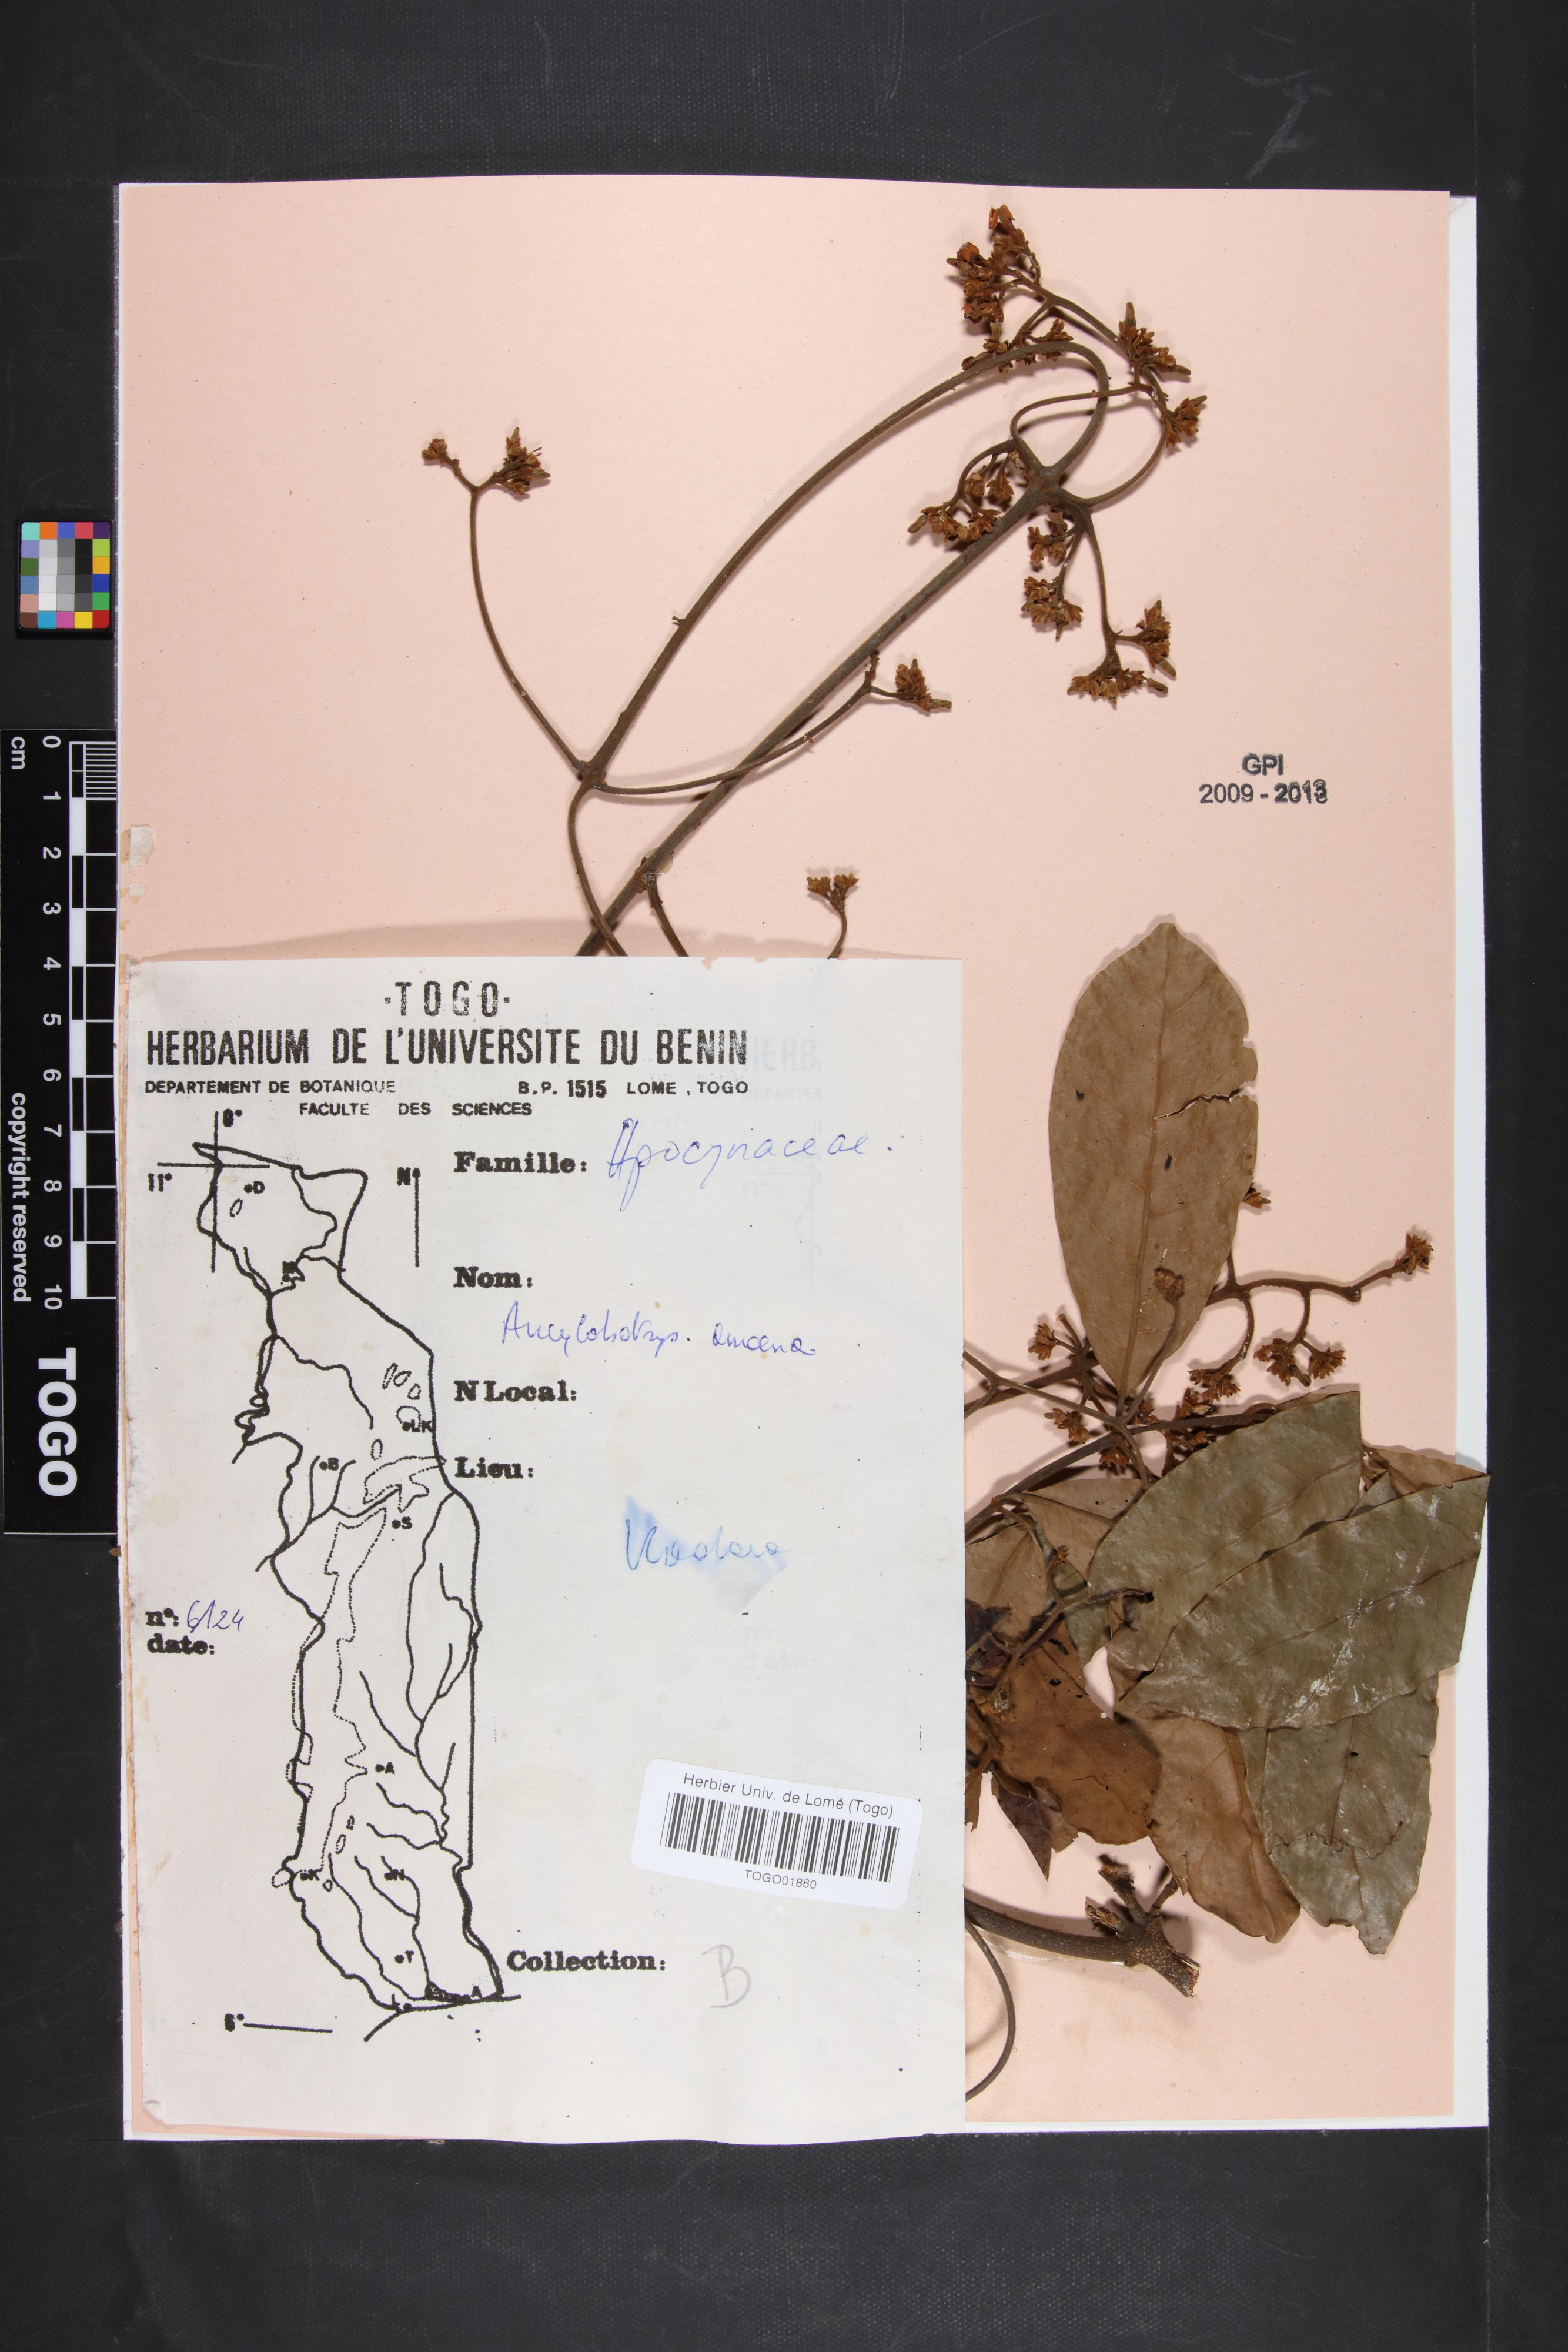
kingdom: Plantae
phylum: Tracheophyta
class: Magnoliopsida
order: Gentianales
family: Apocynaceae
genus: Ancylobothrys
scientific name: Ancylobothrys amoena
